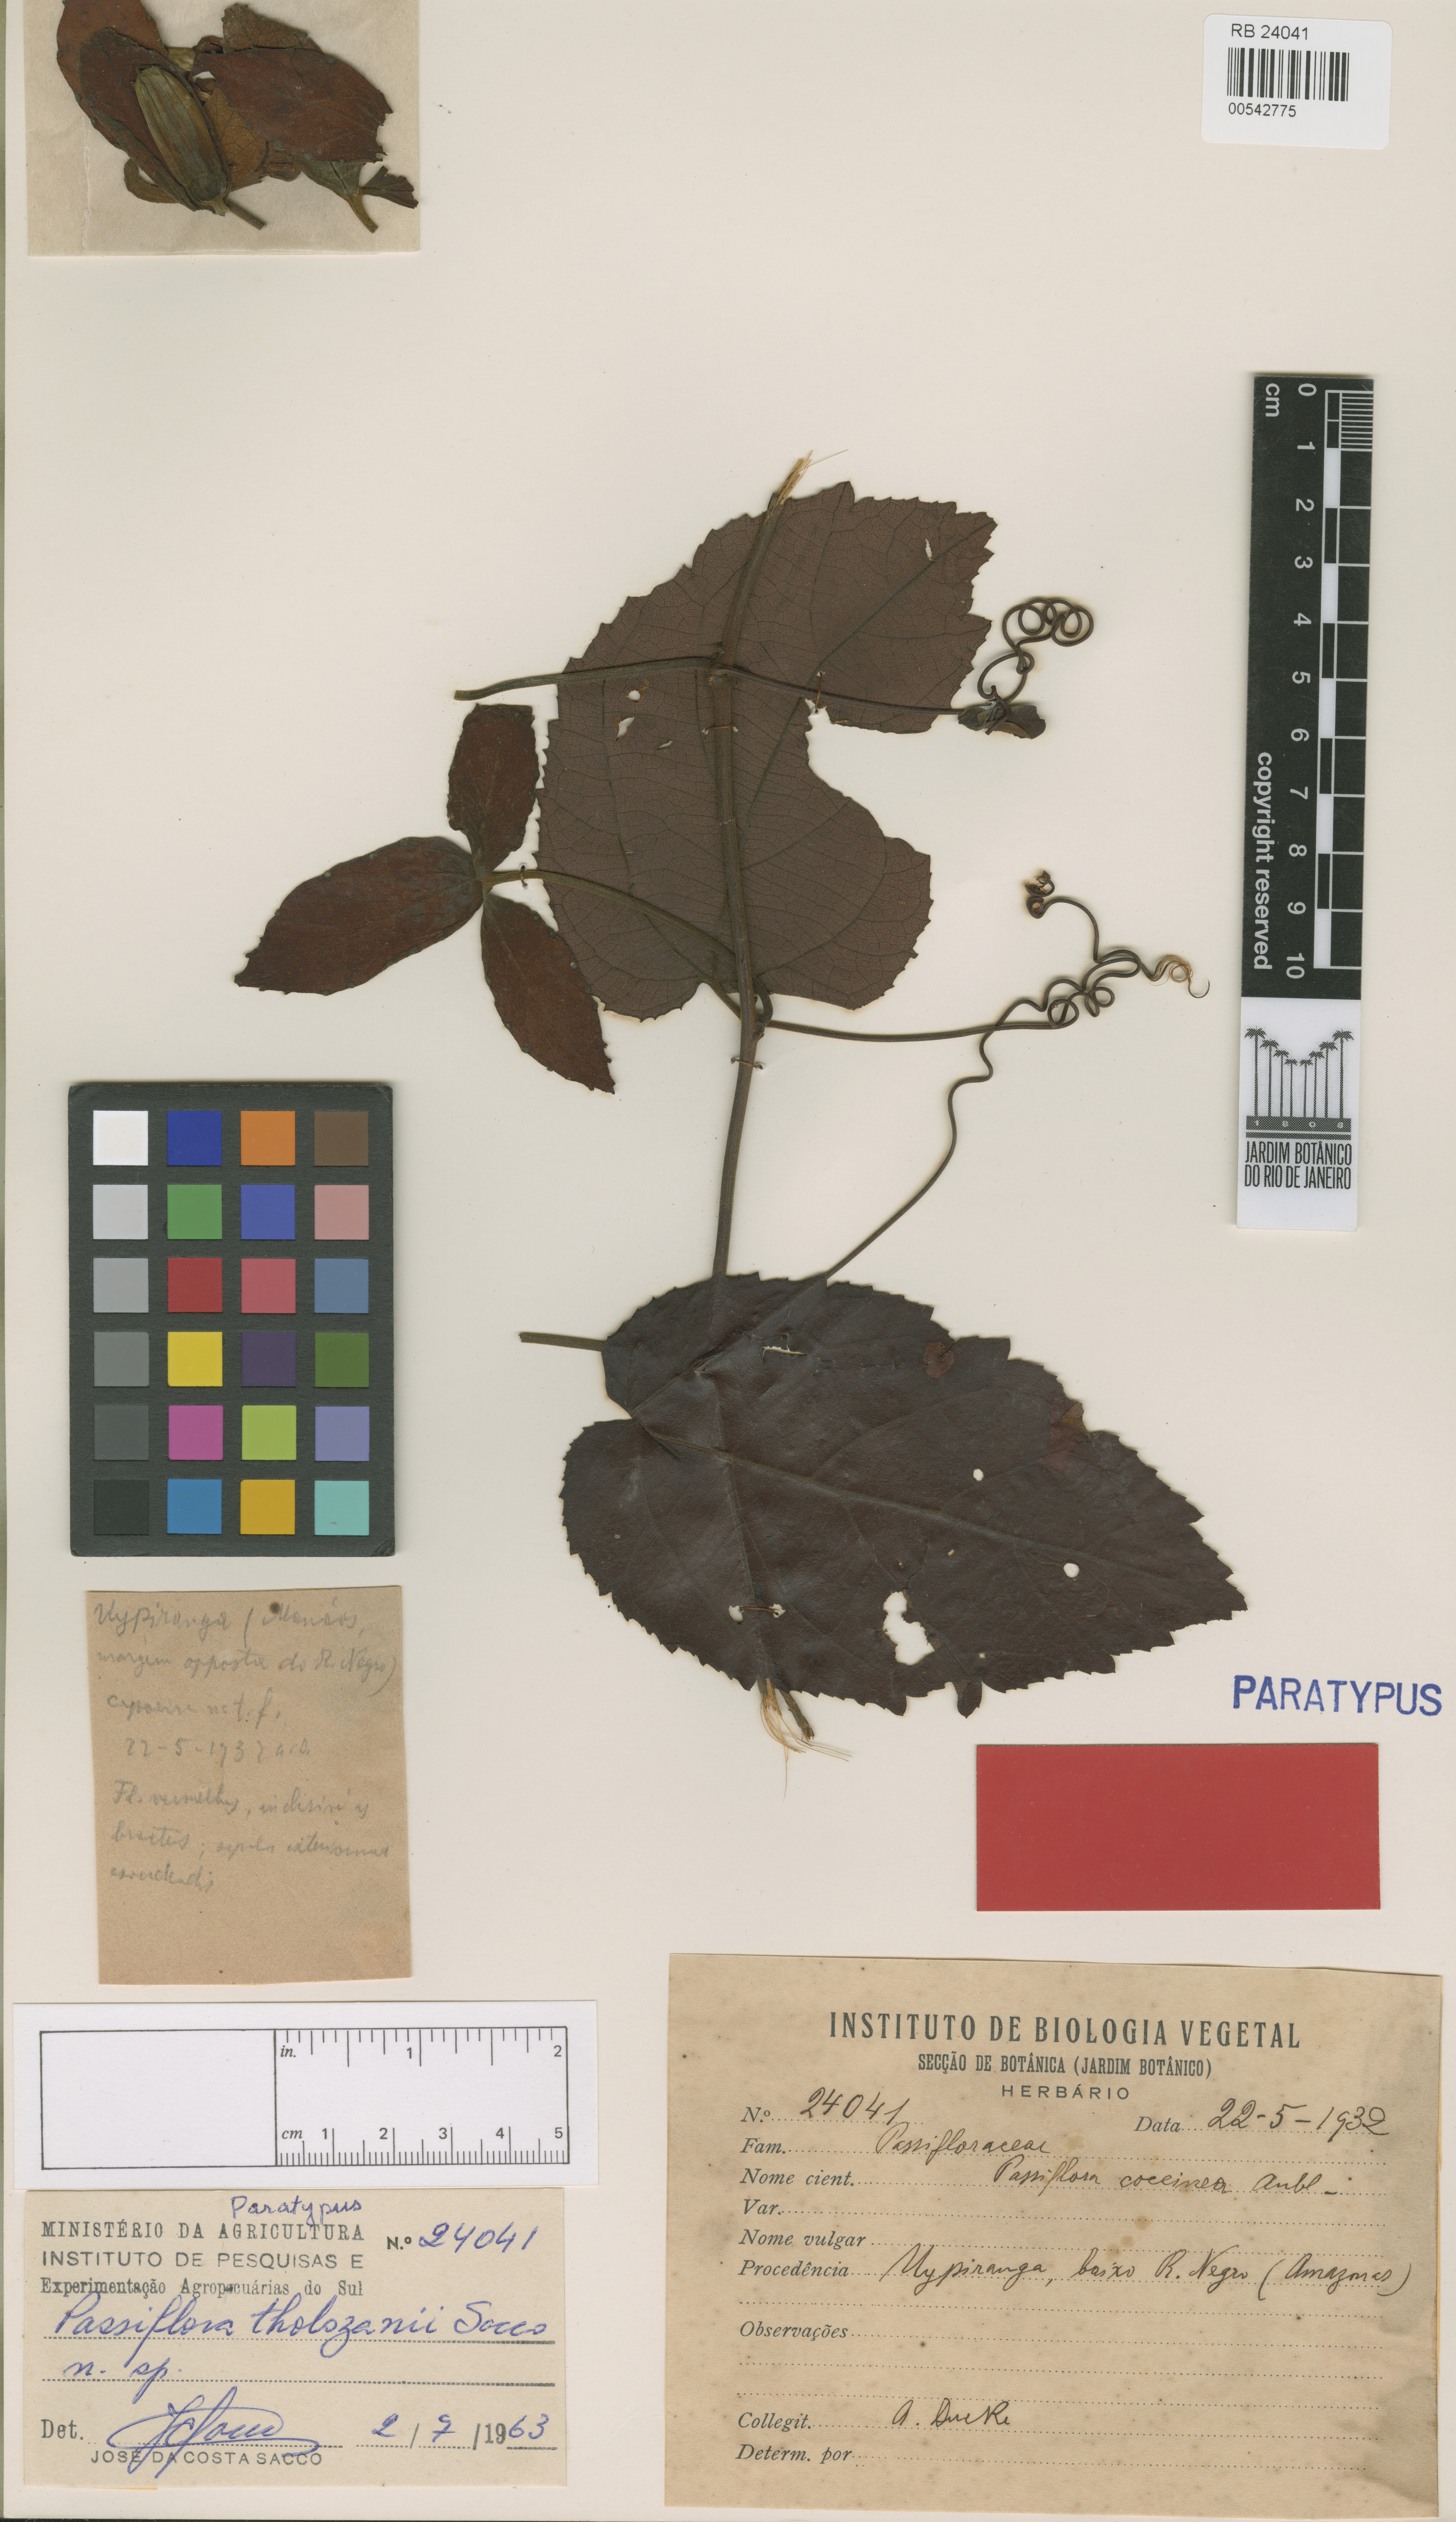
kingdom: Plantae
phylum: Tracheophyta
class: Magnoliopsida
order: Malpighiales
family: Passifloraceae
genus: Passiflora
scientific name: Passiflora tholozanii
